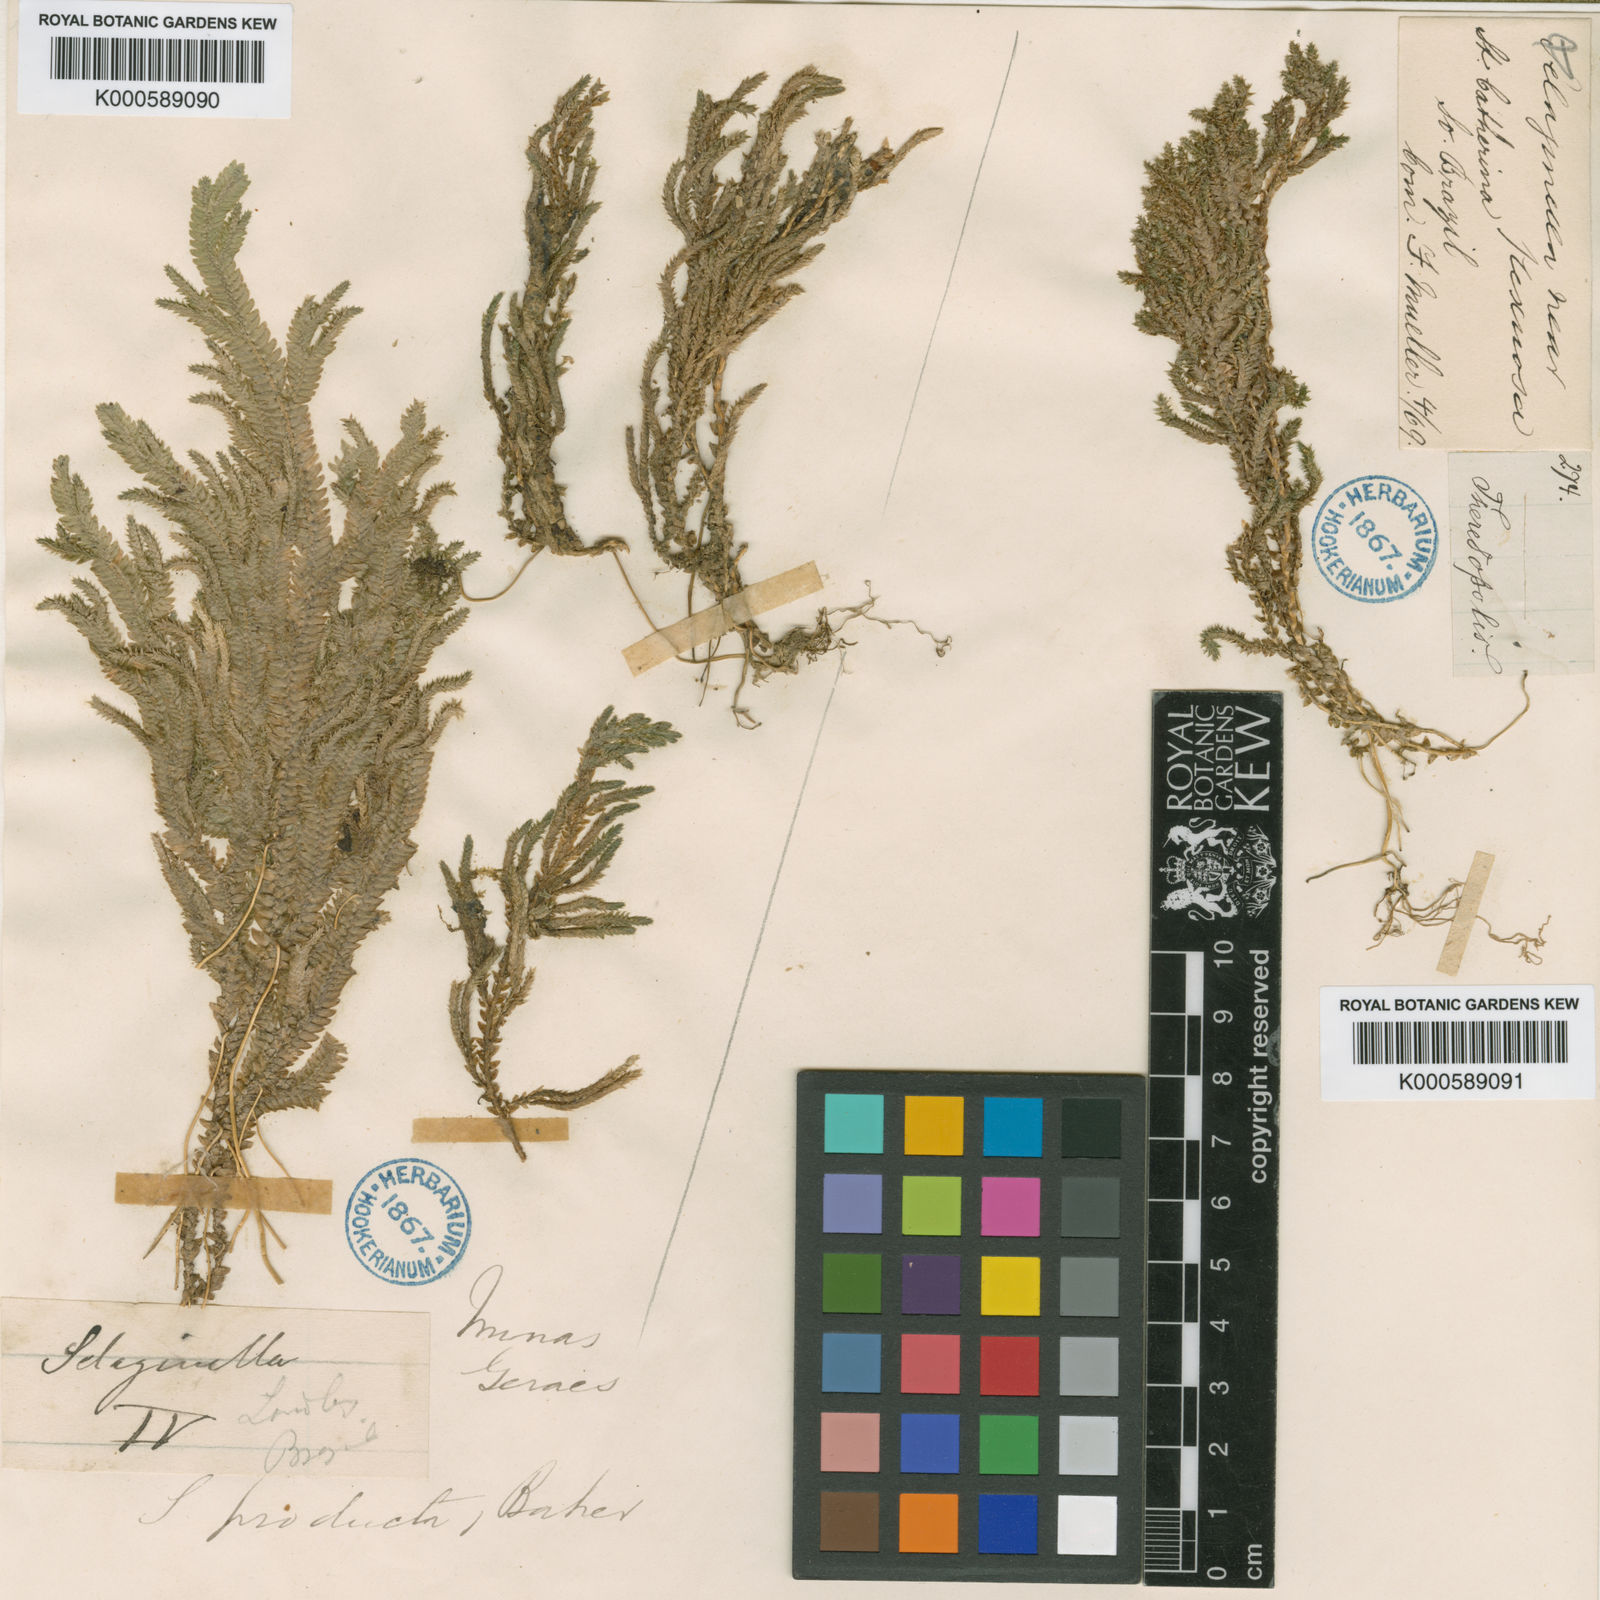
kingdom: Plantae
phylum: Tracheophyta
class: Lycopodiopsida
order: Selaginellales
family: Selaginellaceae
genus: Selaginella
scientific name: Selaginella revoluta
